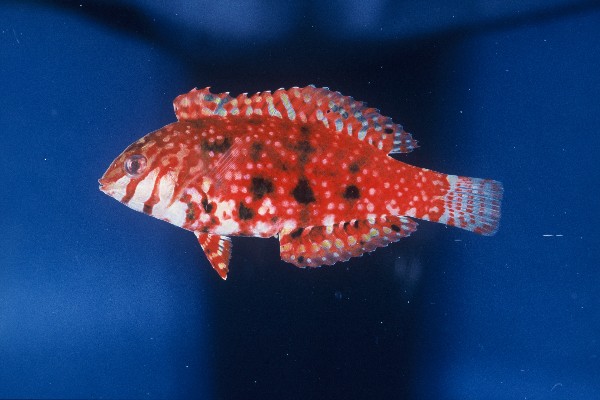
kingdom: Animalia
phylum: Chordata
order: Perciformes
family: Labridae
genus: Halichoeres
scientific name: Halichoeres lapillus
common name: Jewelled wrasse
